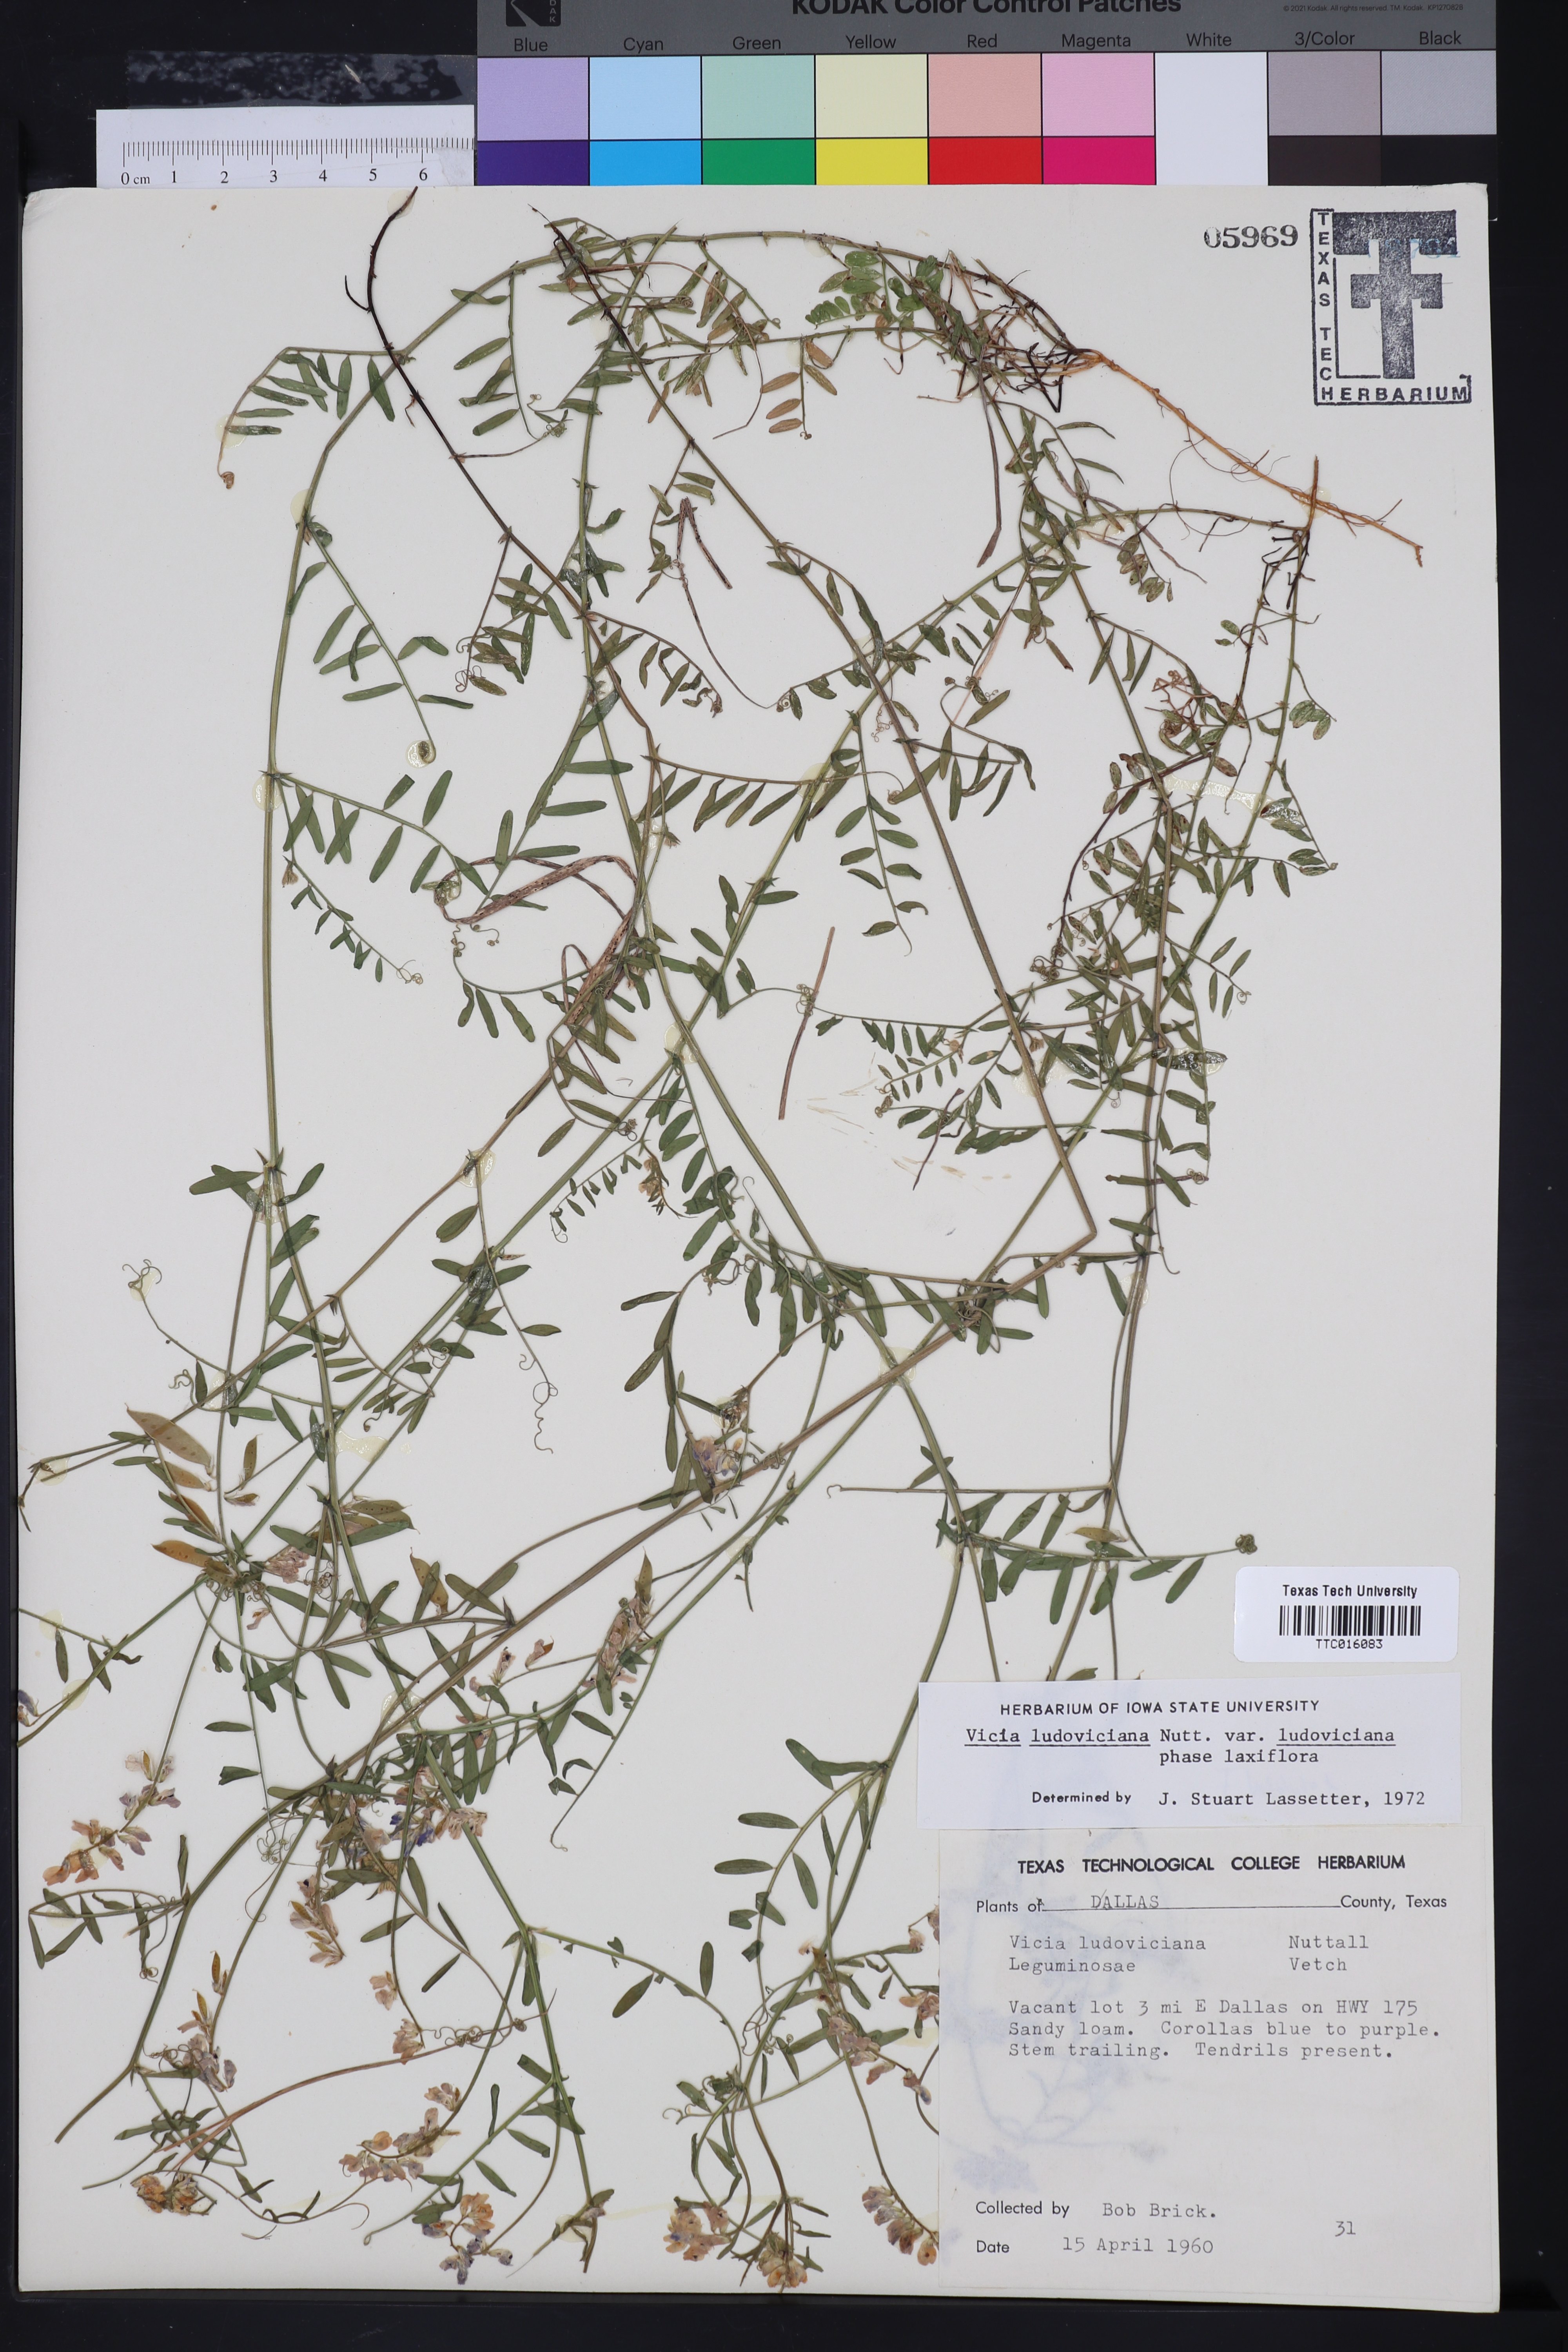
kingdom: Plantae
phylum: Tracheophyta
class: Magnoliopsida
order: Fabales
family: Fabaceae
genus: Vicia
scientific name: Vicia ludoviciana
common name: Louisiana vetch
